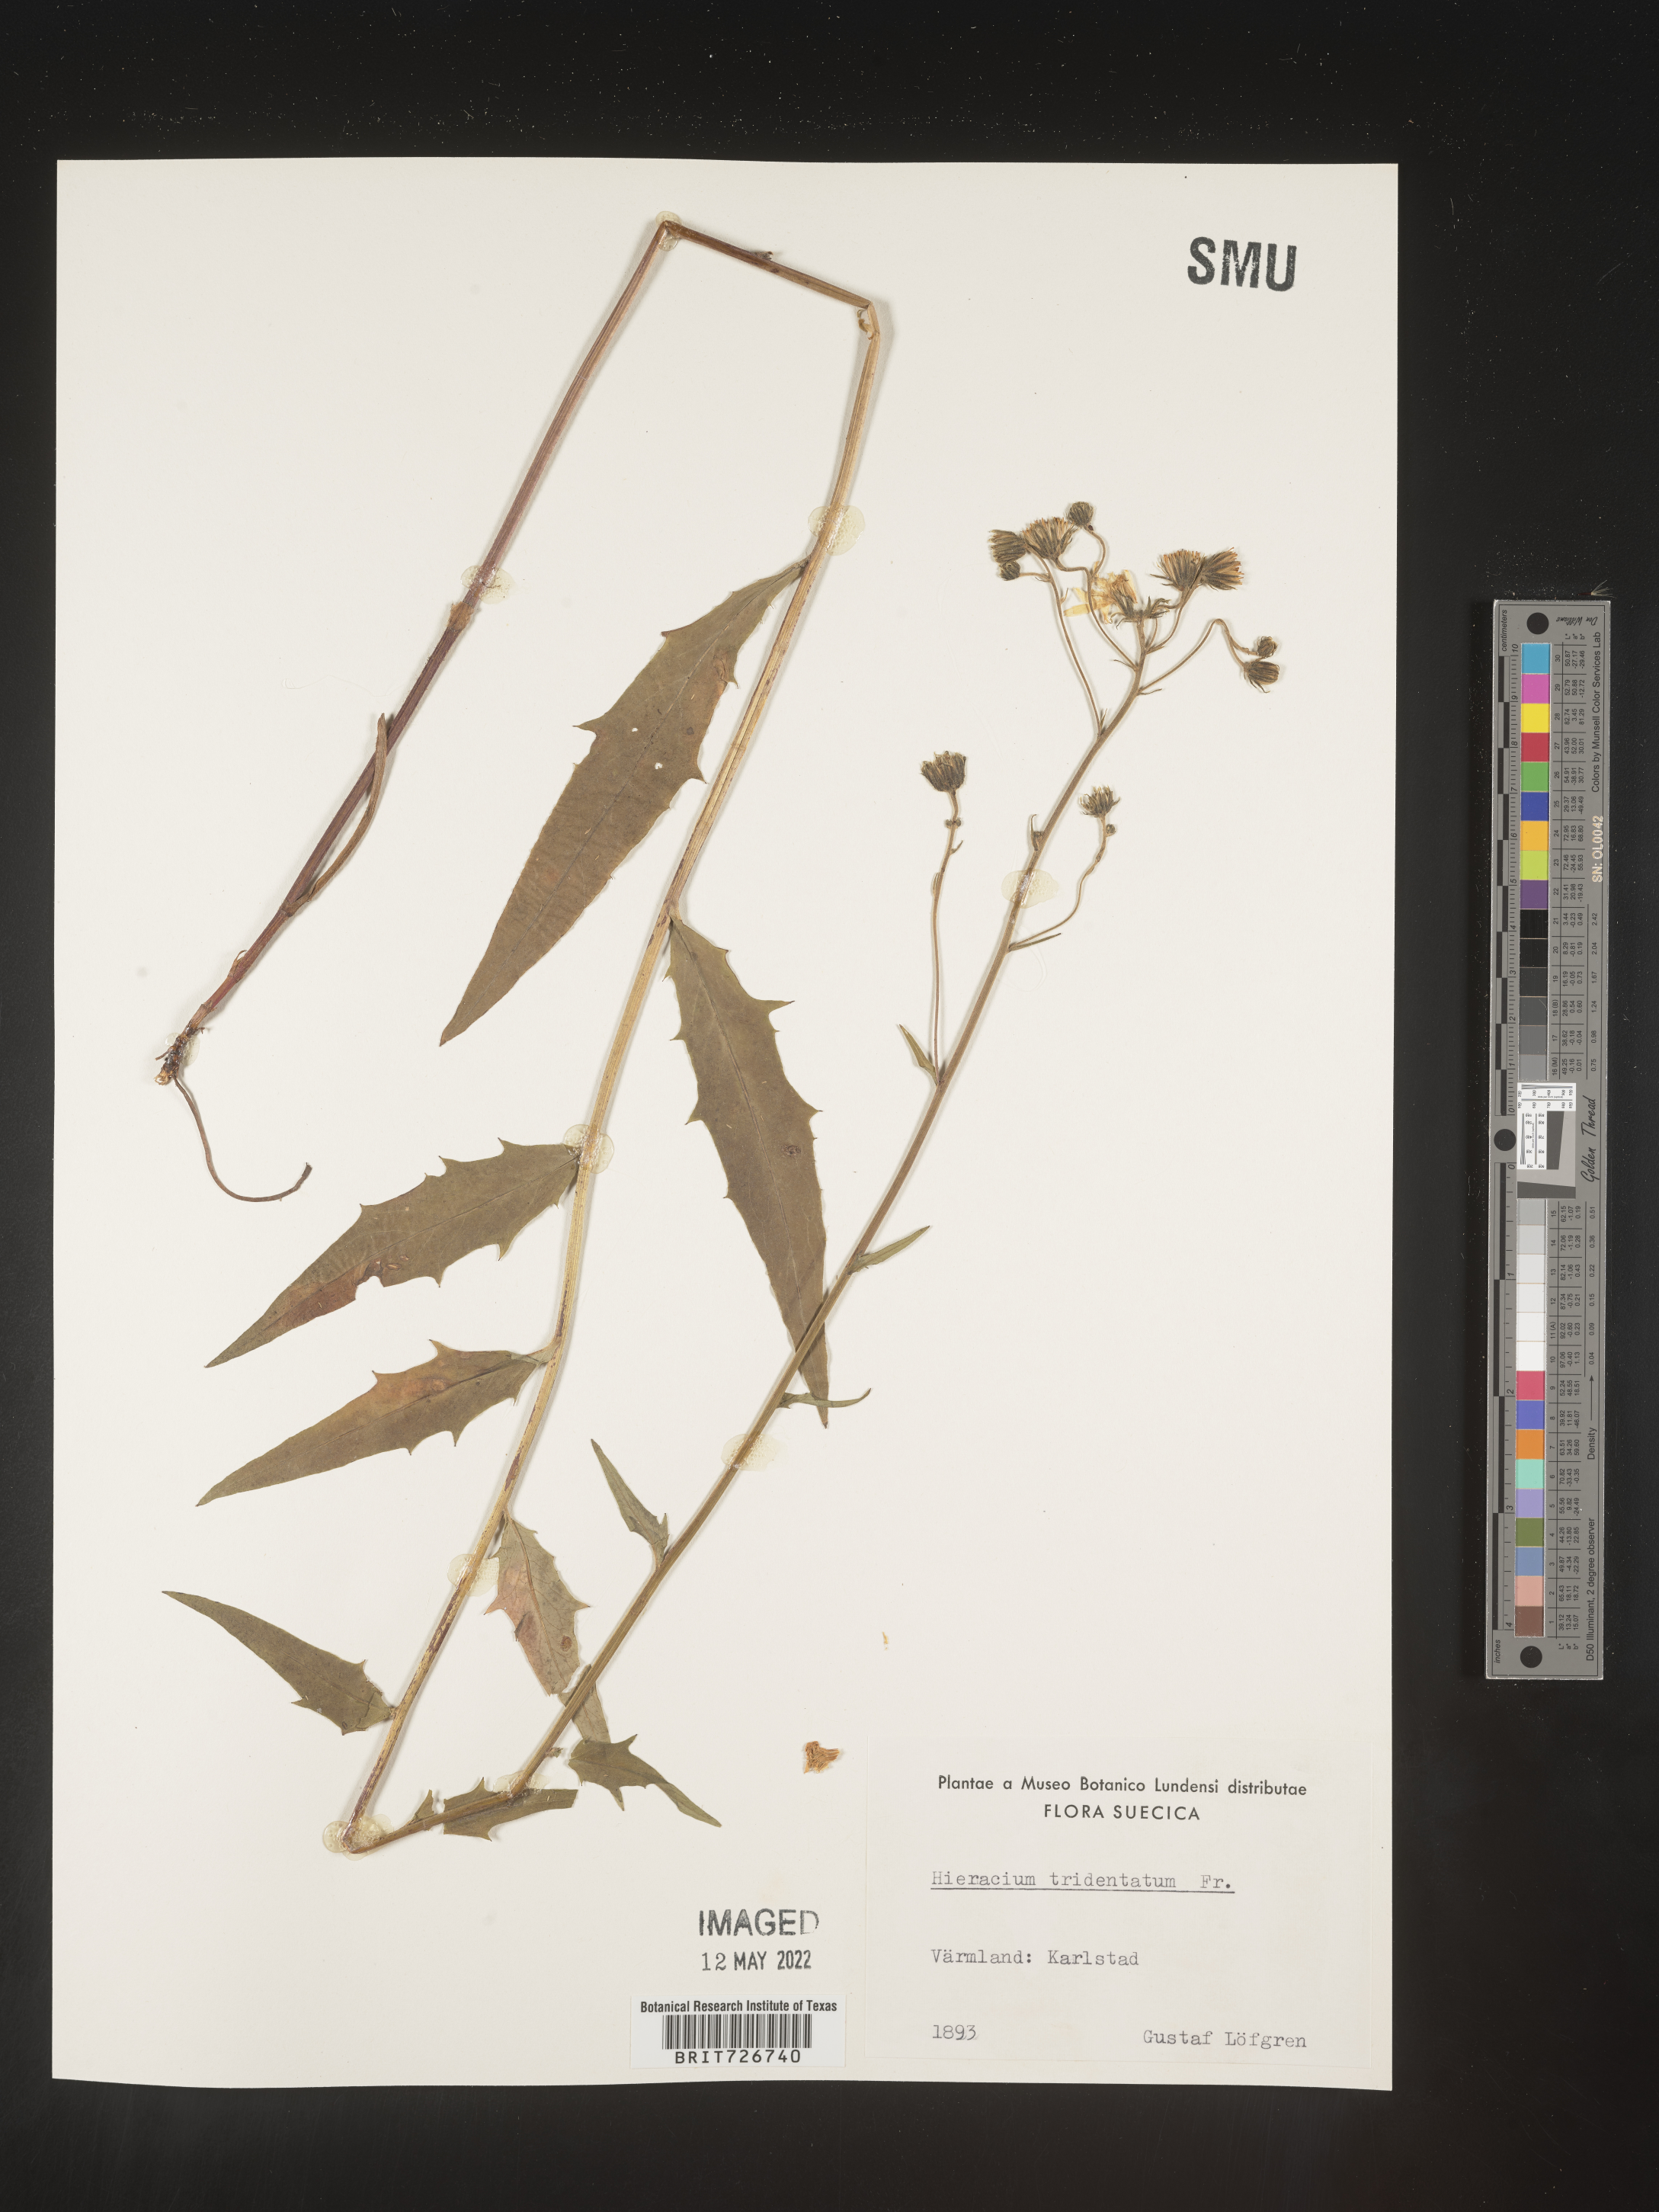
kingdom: Plantae
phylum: Tracheophyta
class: Magnoliopsida
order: Asterales
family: Asteraceae
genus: Hieracium
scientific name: Hieracium
